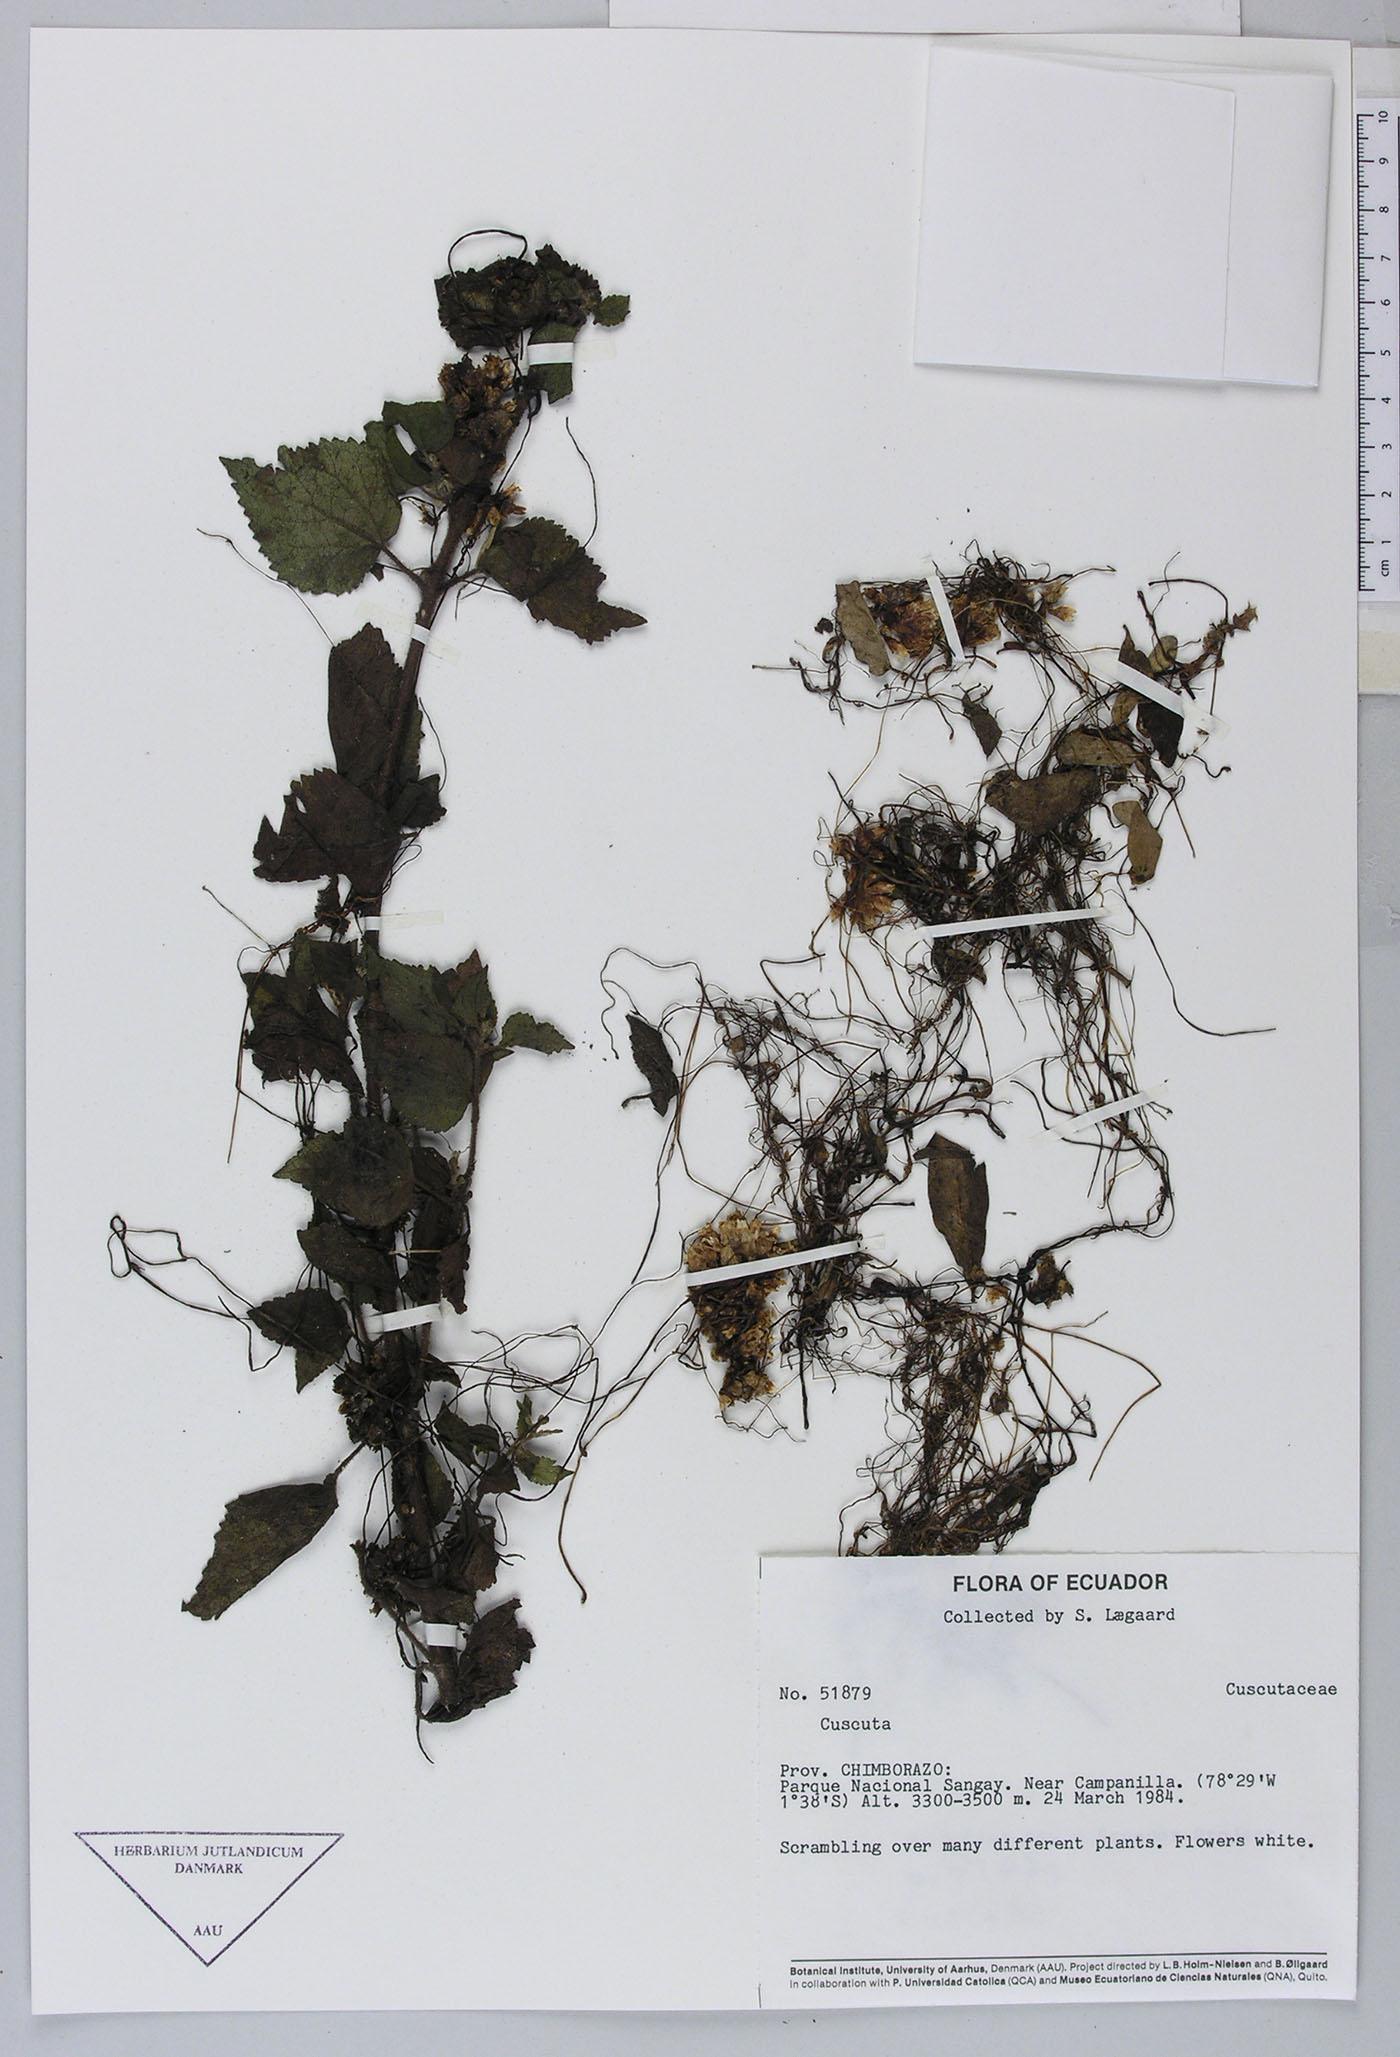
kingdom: Plantae
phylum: Tracheophyta
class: Magnoliopsida
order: Solanales
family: Convolvulaceae
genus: Cuscuta
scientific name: Cuscuta foetida
